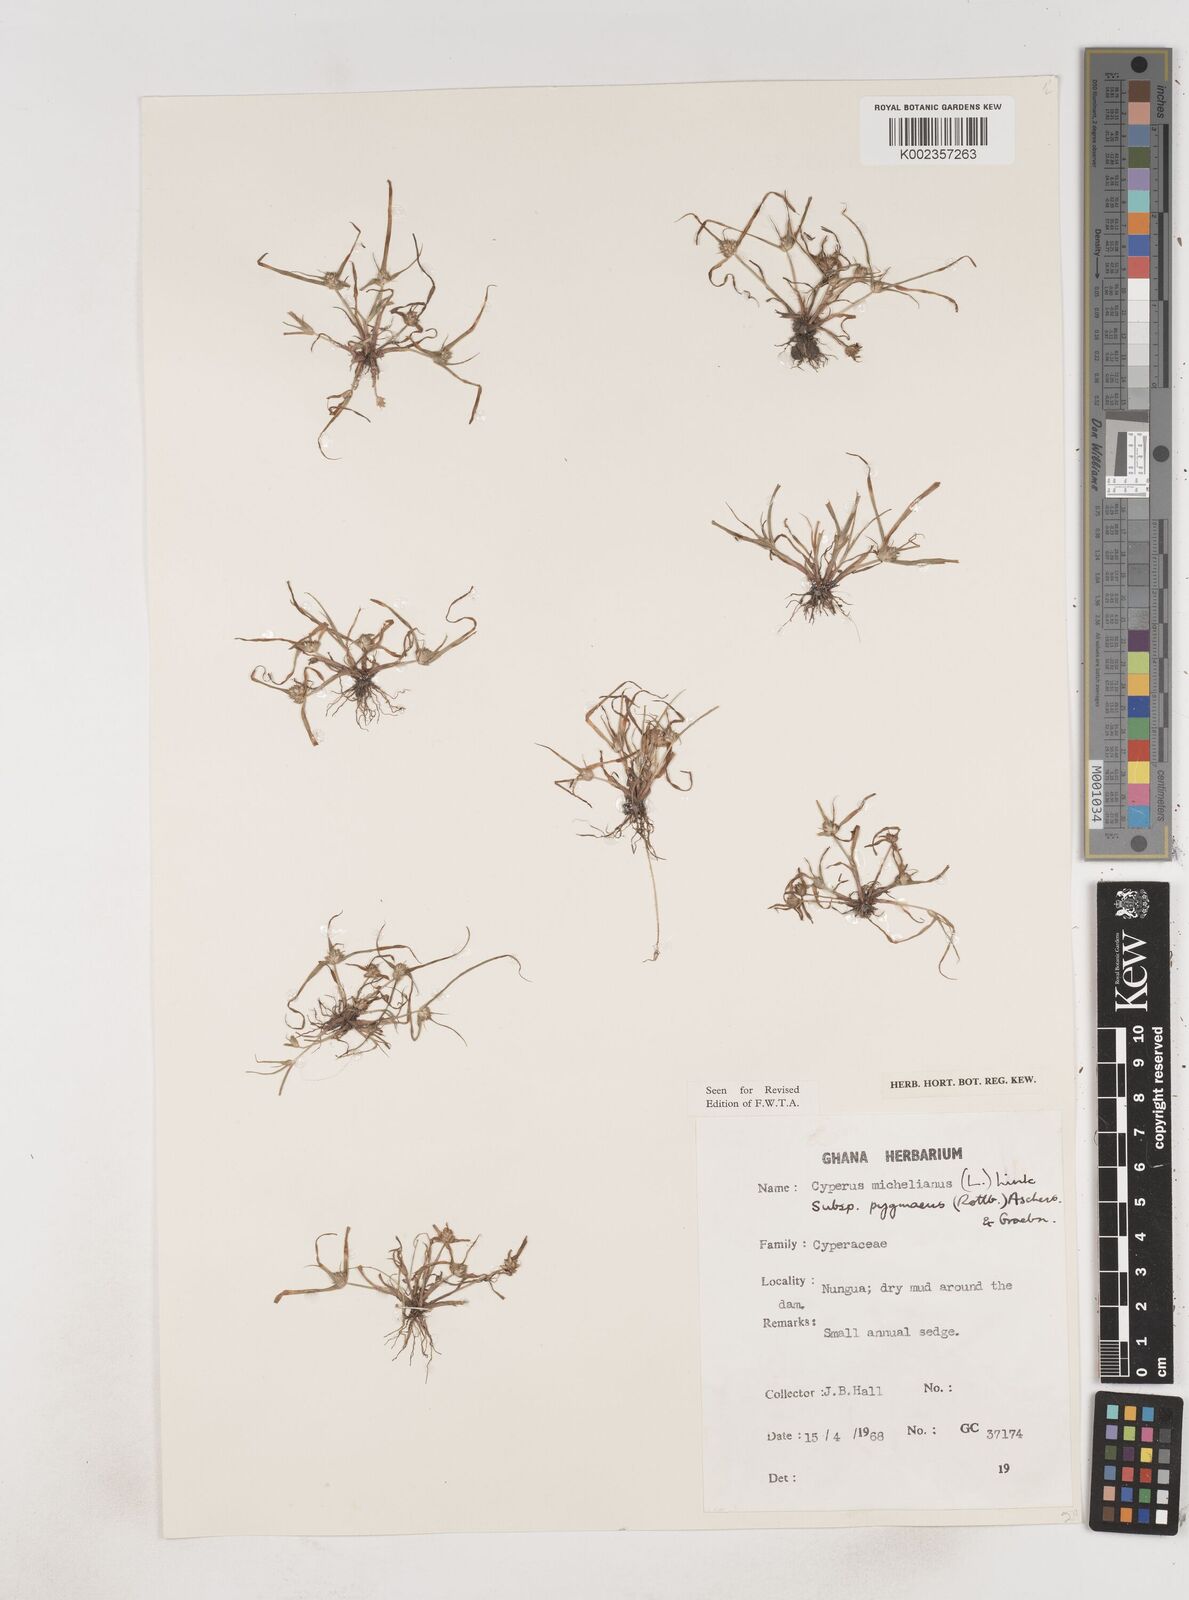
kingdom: Plantae
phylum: Tracheophyta
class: Liliopsida
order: Poales
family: Cyperaceae
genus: Cyperus
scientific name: Cyperus michelianus
